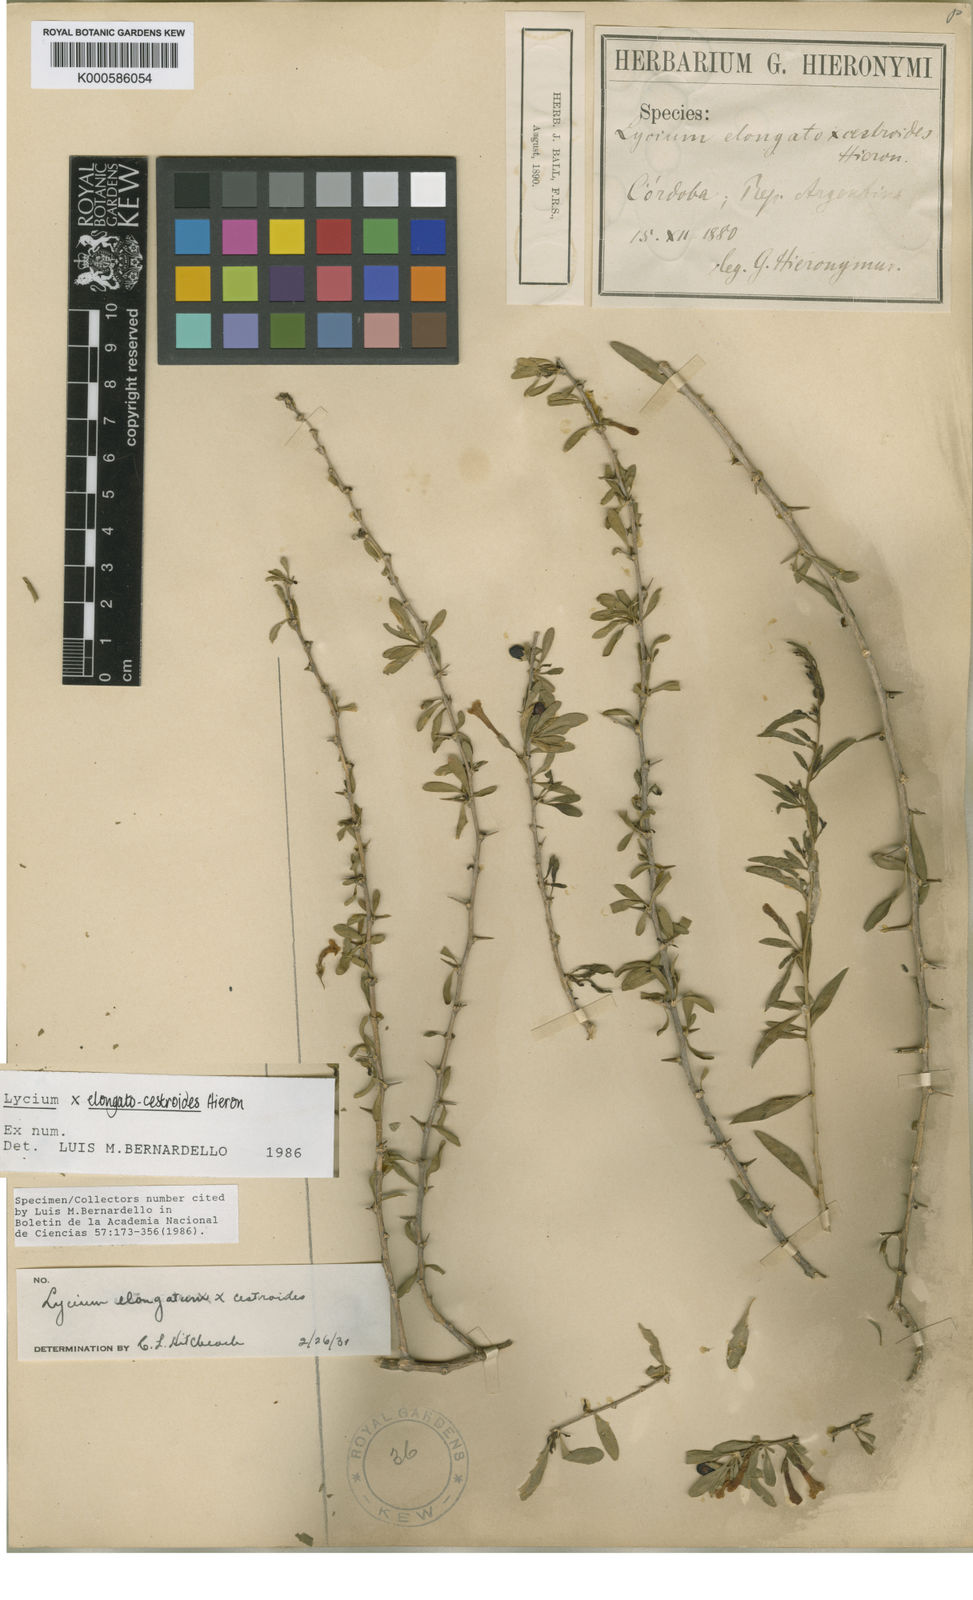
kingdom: Plantae
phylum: Tracheophyta
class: Magnoliopsida
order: Solanales
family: Solanaceae
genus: Lycium
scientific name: Lycium
